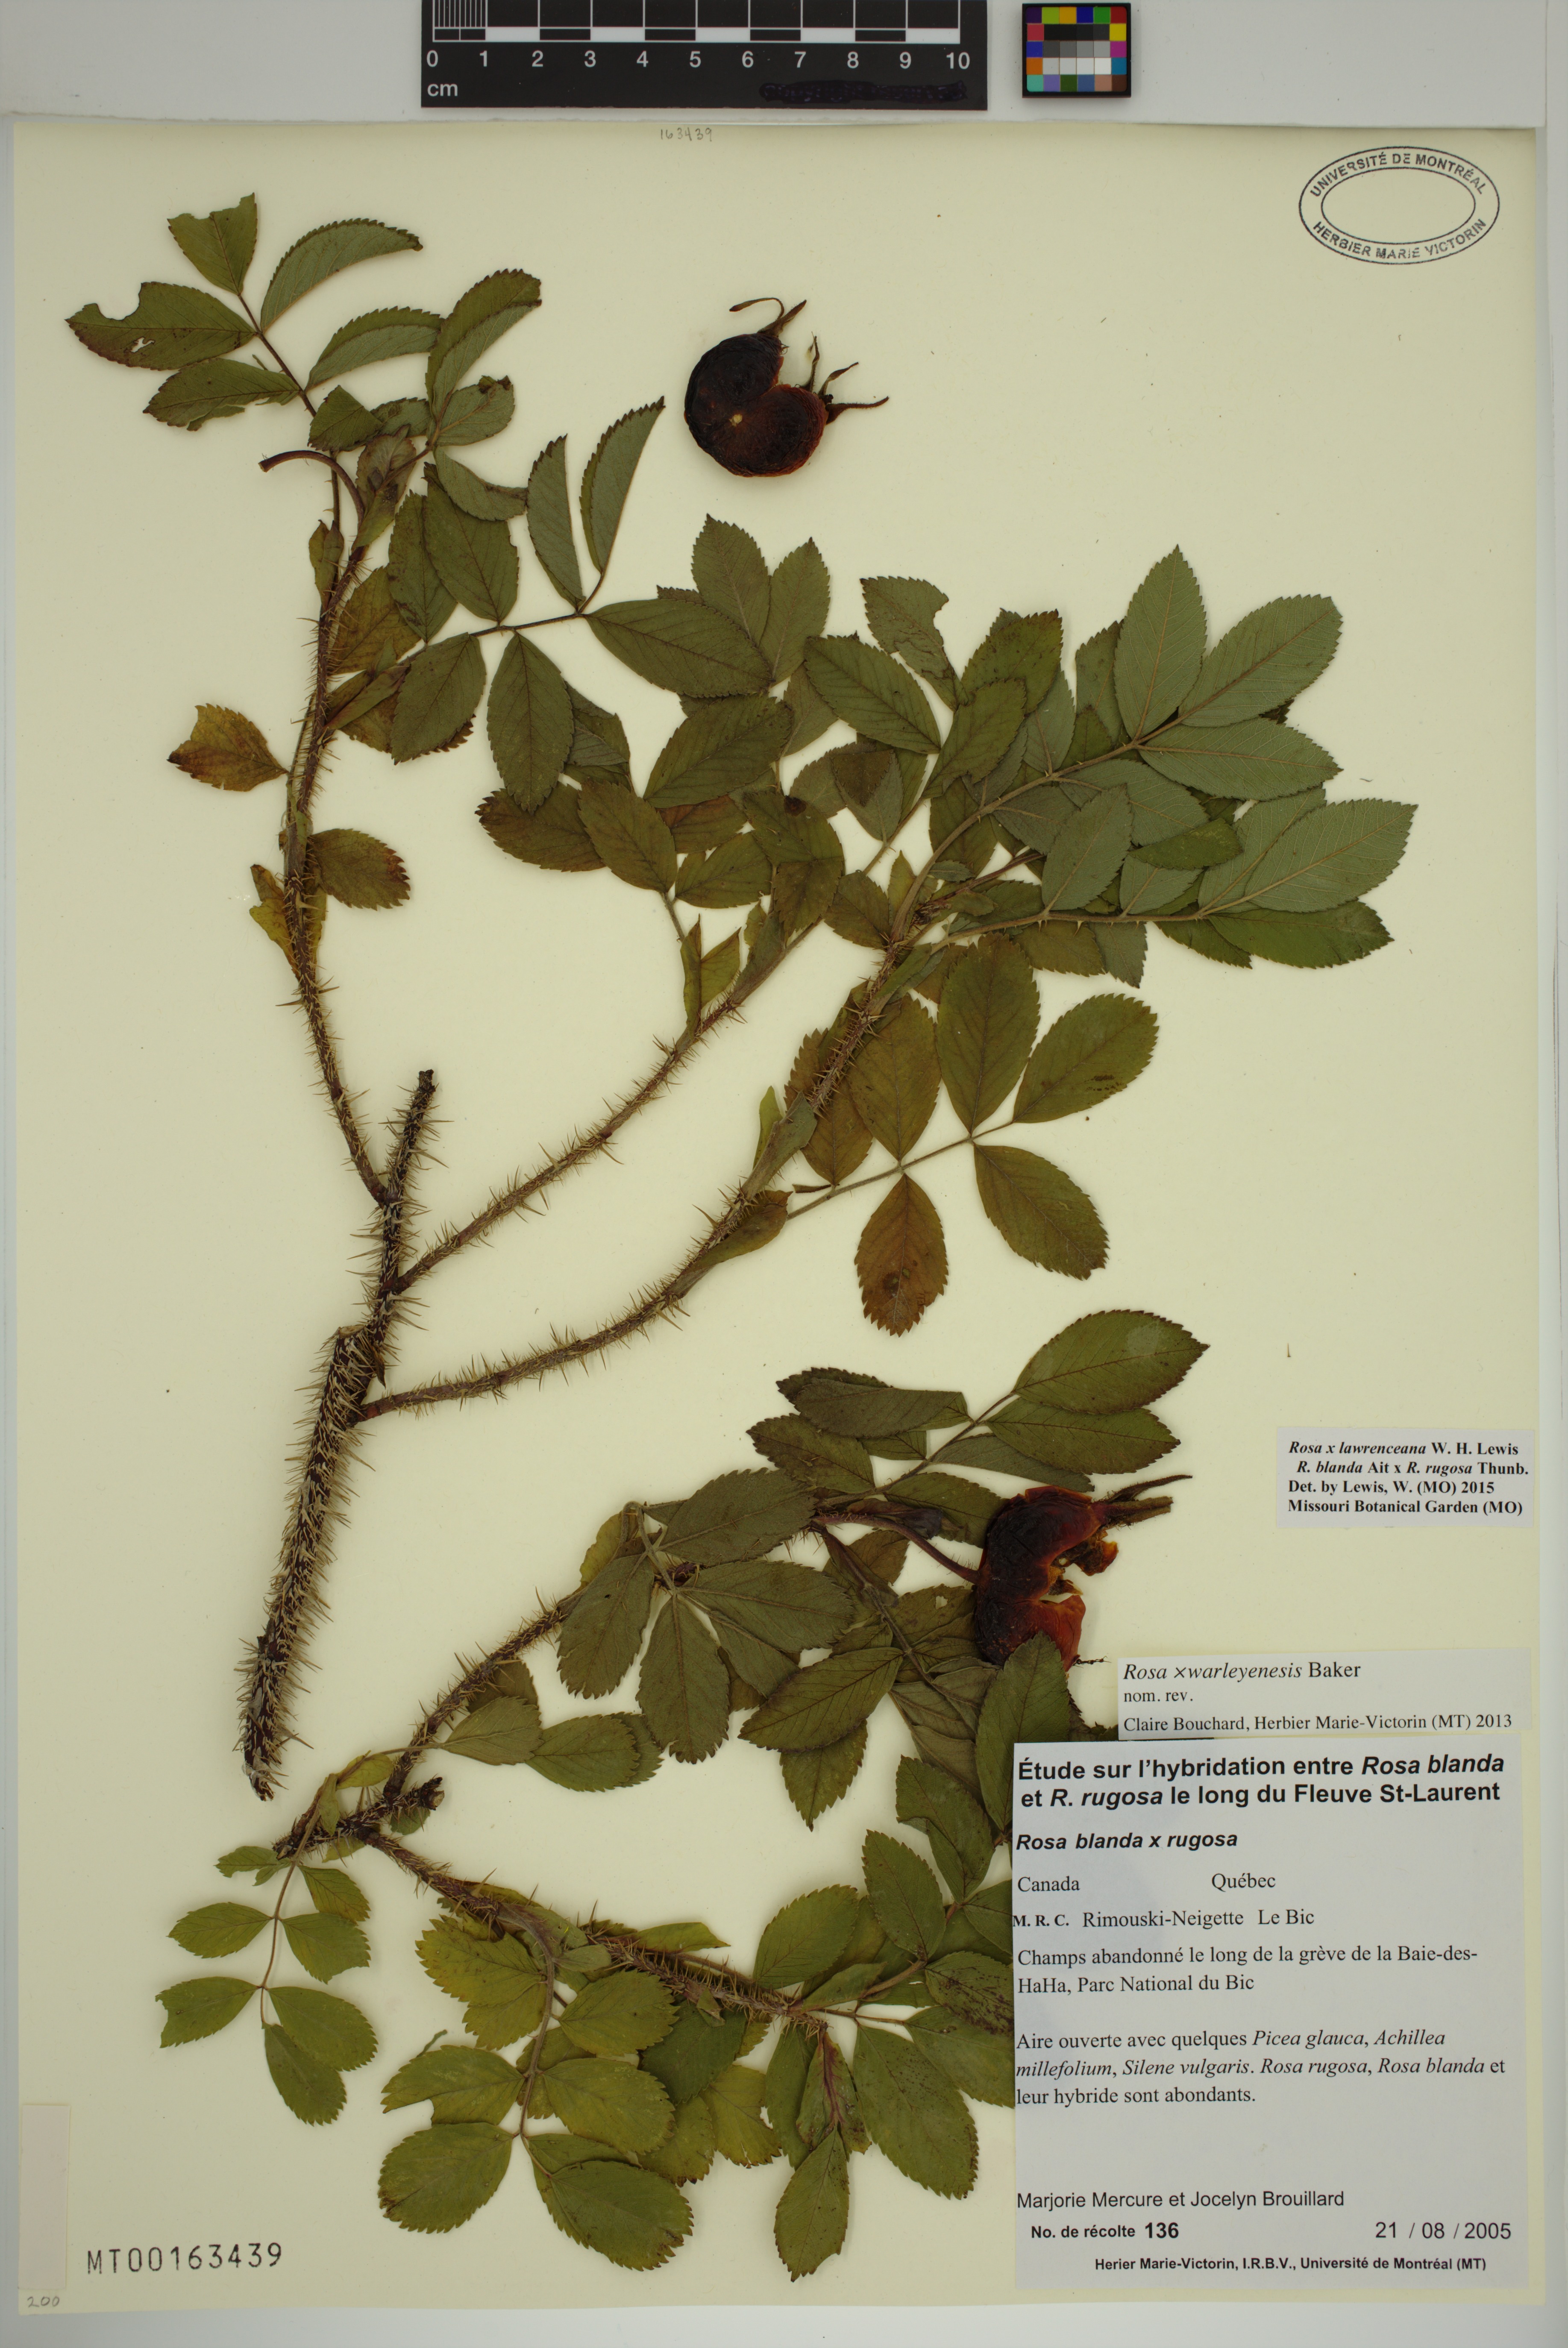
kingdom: Plantae
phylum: Tracheophyta
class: Magnoliopsida
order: Rosales
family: Rosaceae
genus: Rosa
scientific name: Rosa chinensis
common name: China rose
